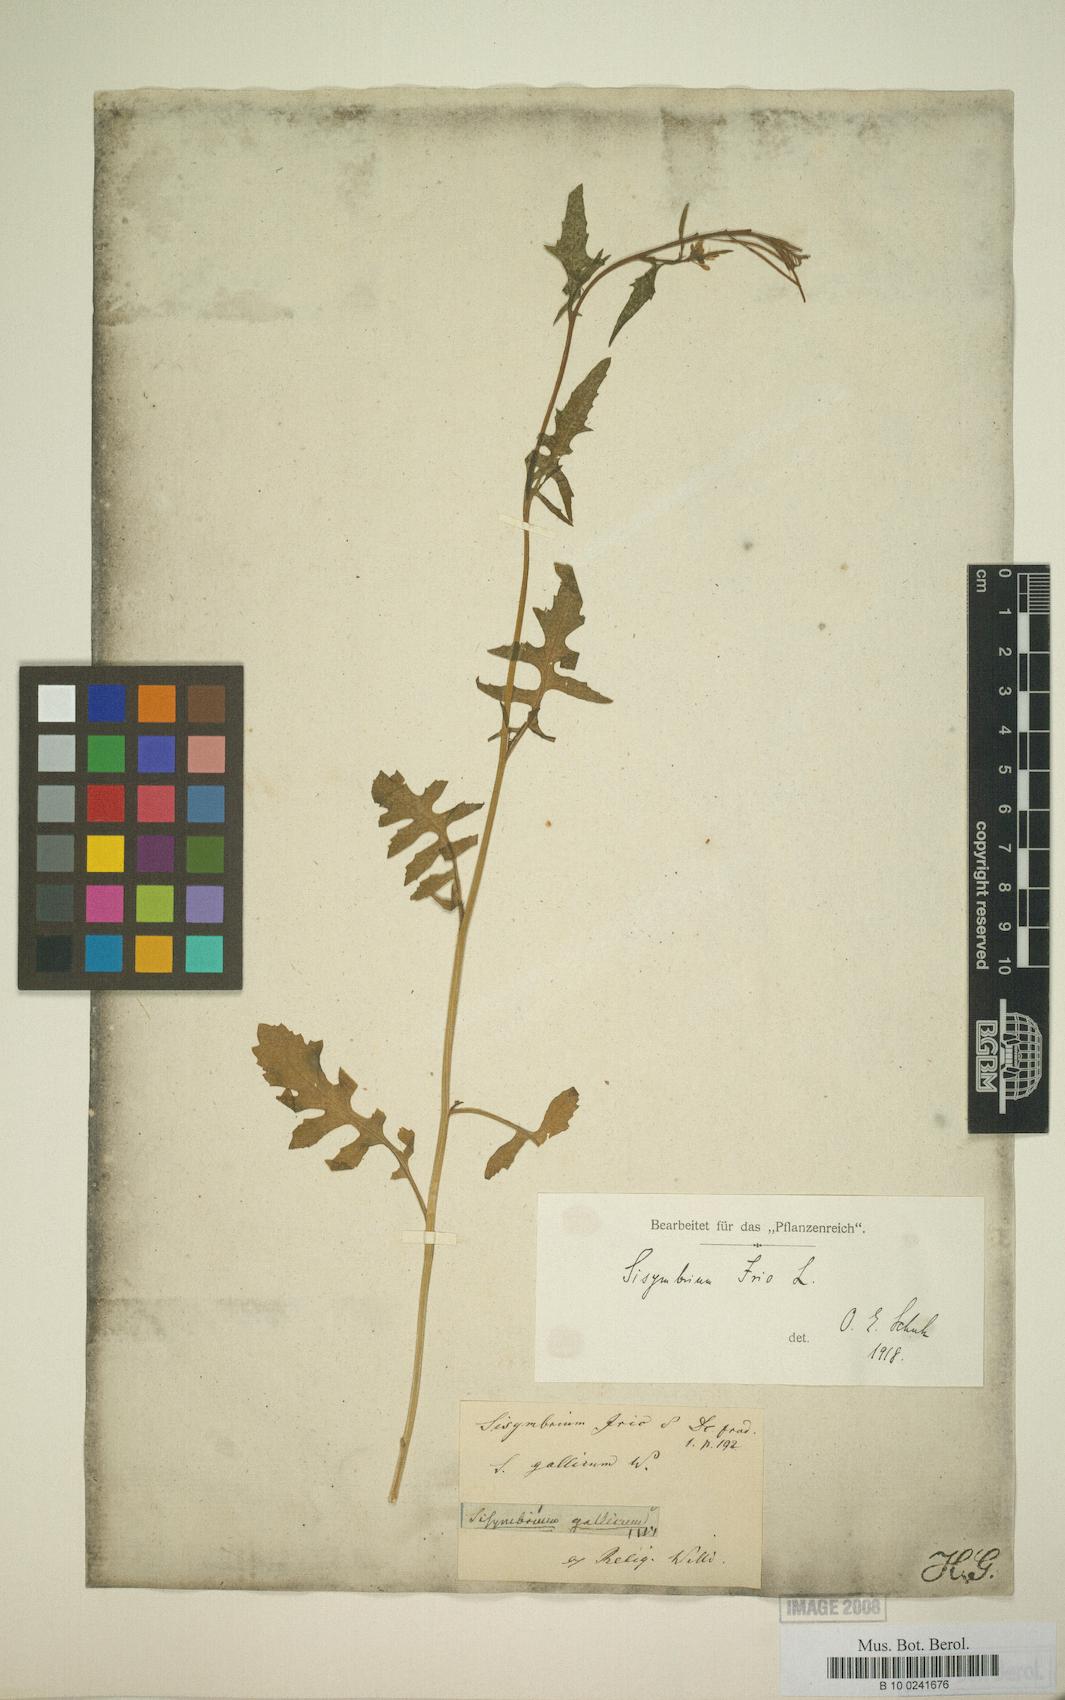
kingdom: Plantae
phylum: Tracheophyta
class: Magnoliopsida
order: Brassicales
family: Brassicaceae
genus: Sisymbrium
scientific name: Sisymbrium irio
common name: London rocket
